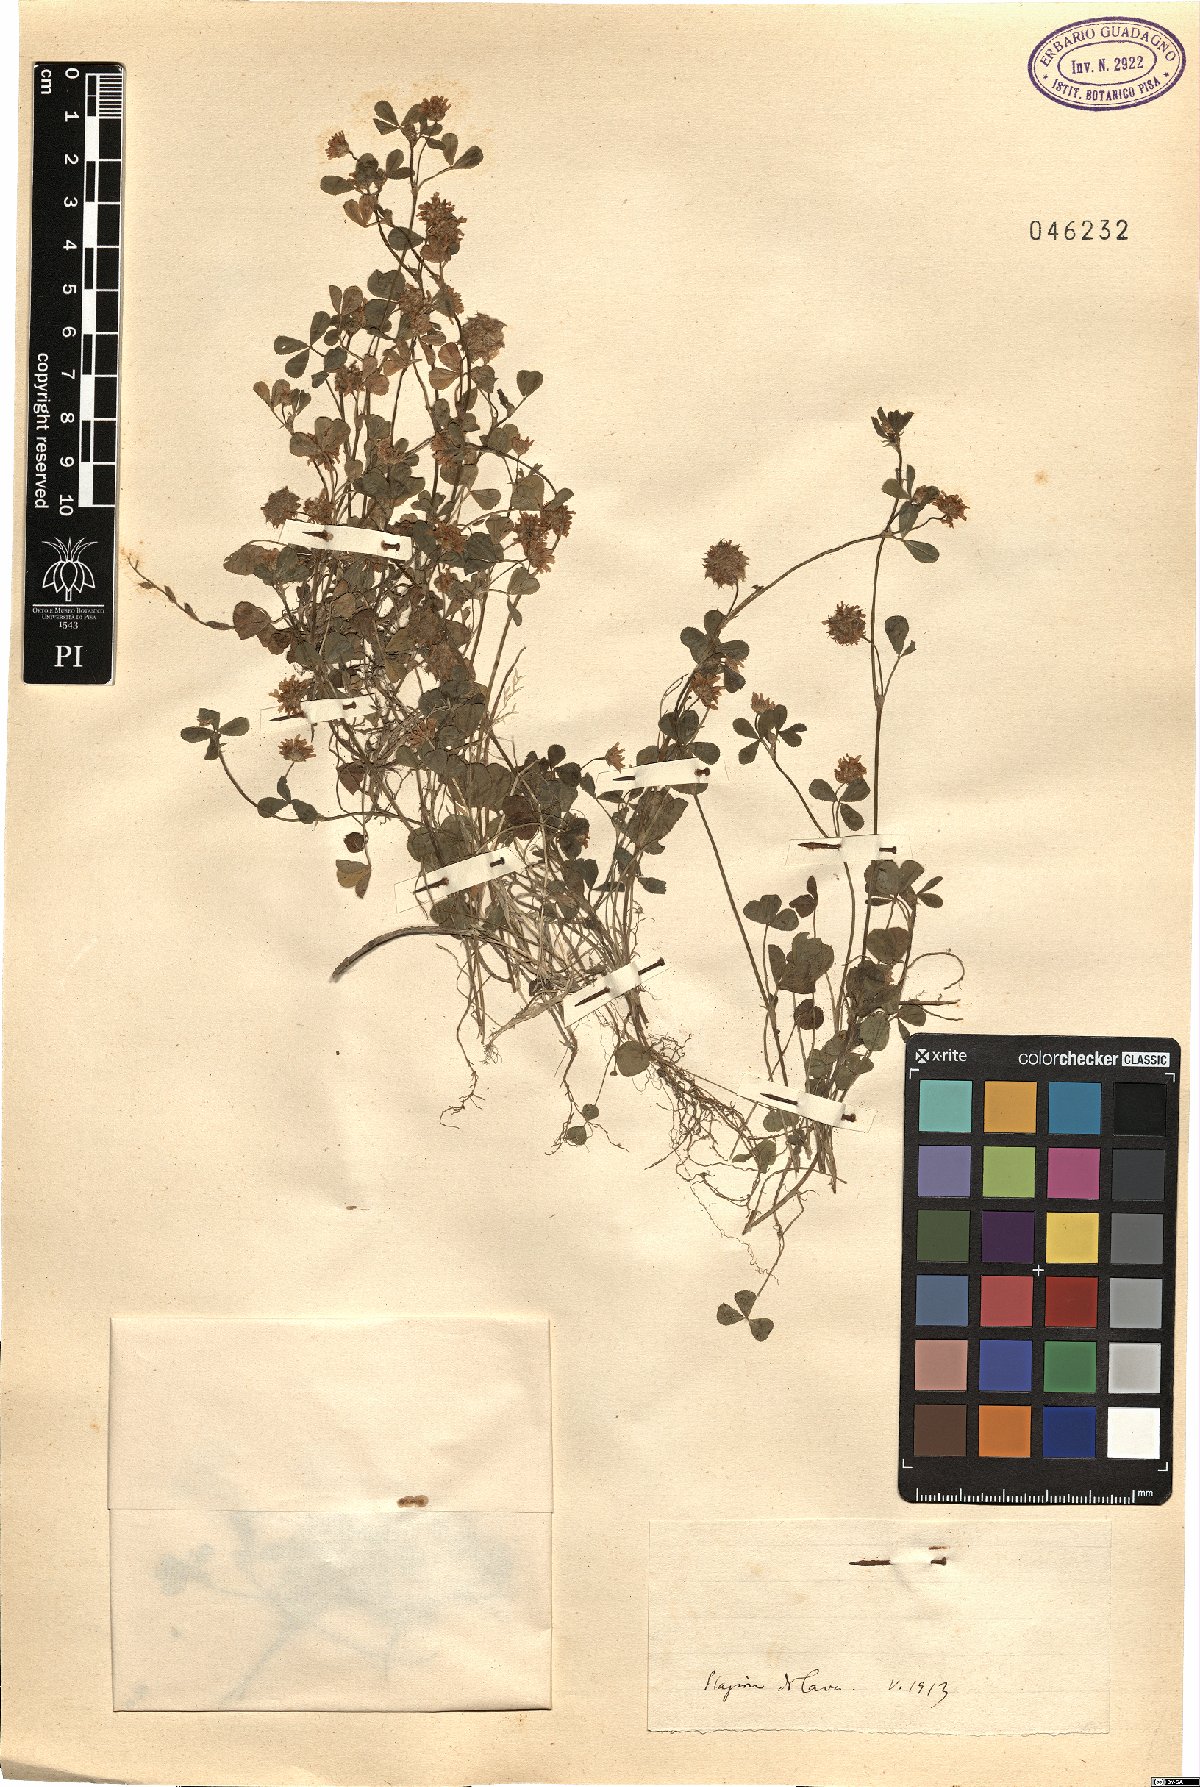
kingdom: Plantae
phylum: Tracheophyta
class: Magnoliopsida
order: Fabales
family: Fabaceae
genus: Trifolium
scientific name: Trifolium
